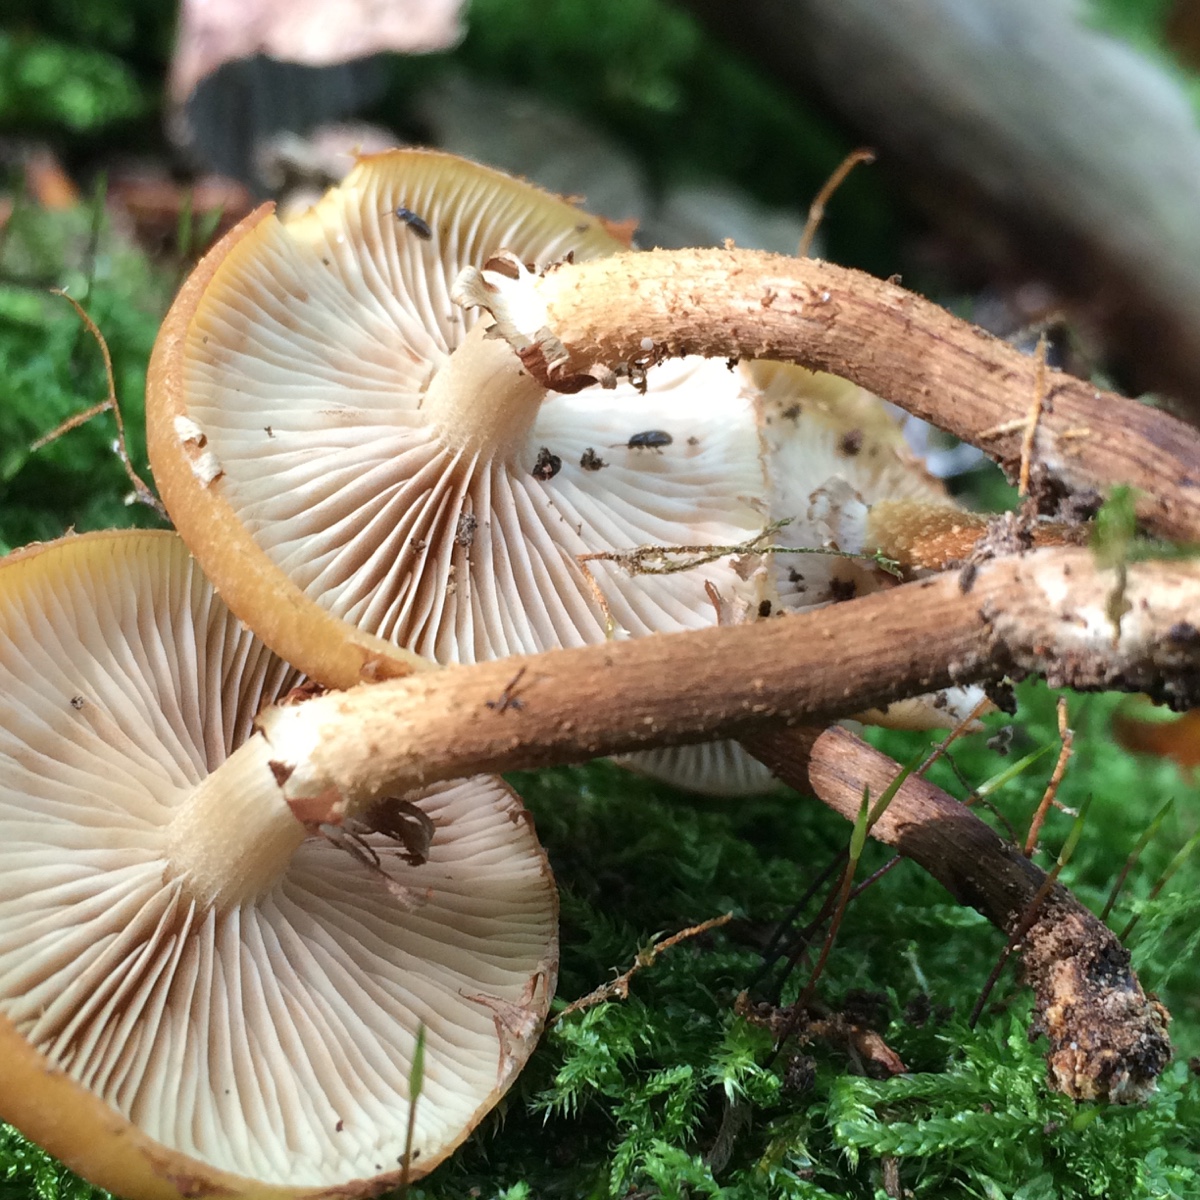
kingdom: Fungi
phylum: Basidiomycota
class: Agaricomycetes
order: Agaricales
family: Strophariaceae
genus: Kuehneromyces
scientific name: Kuehneromyces mutabilis
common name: foranderlig skælhat
